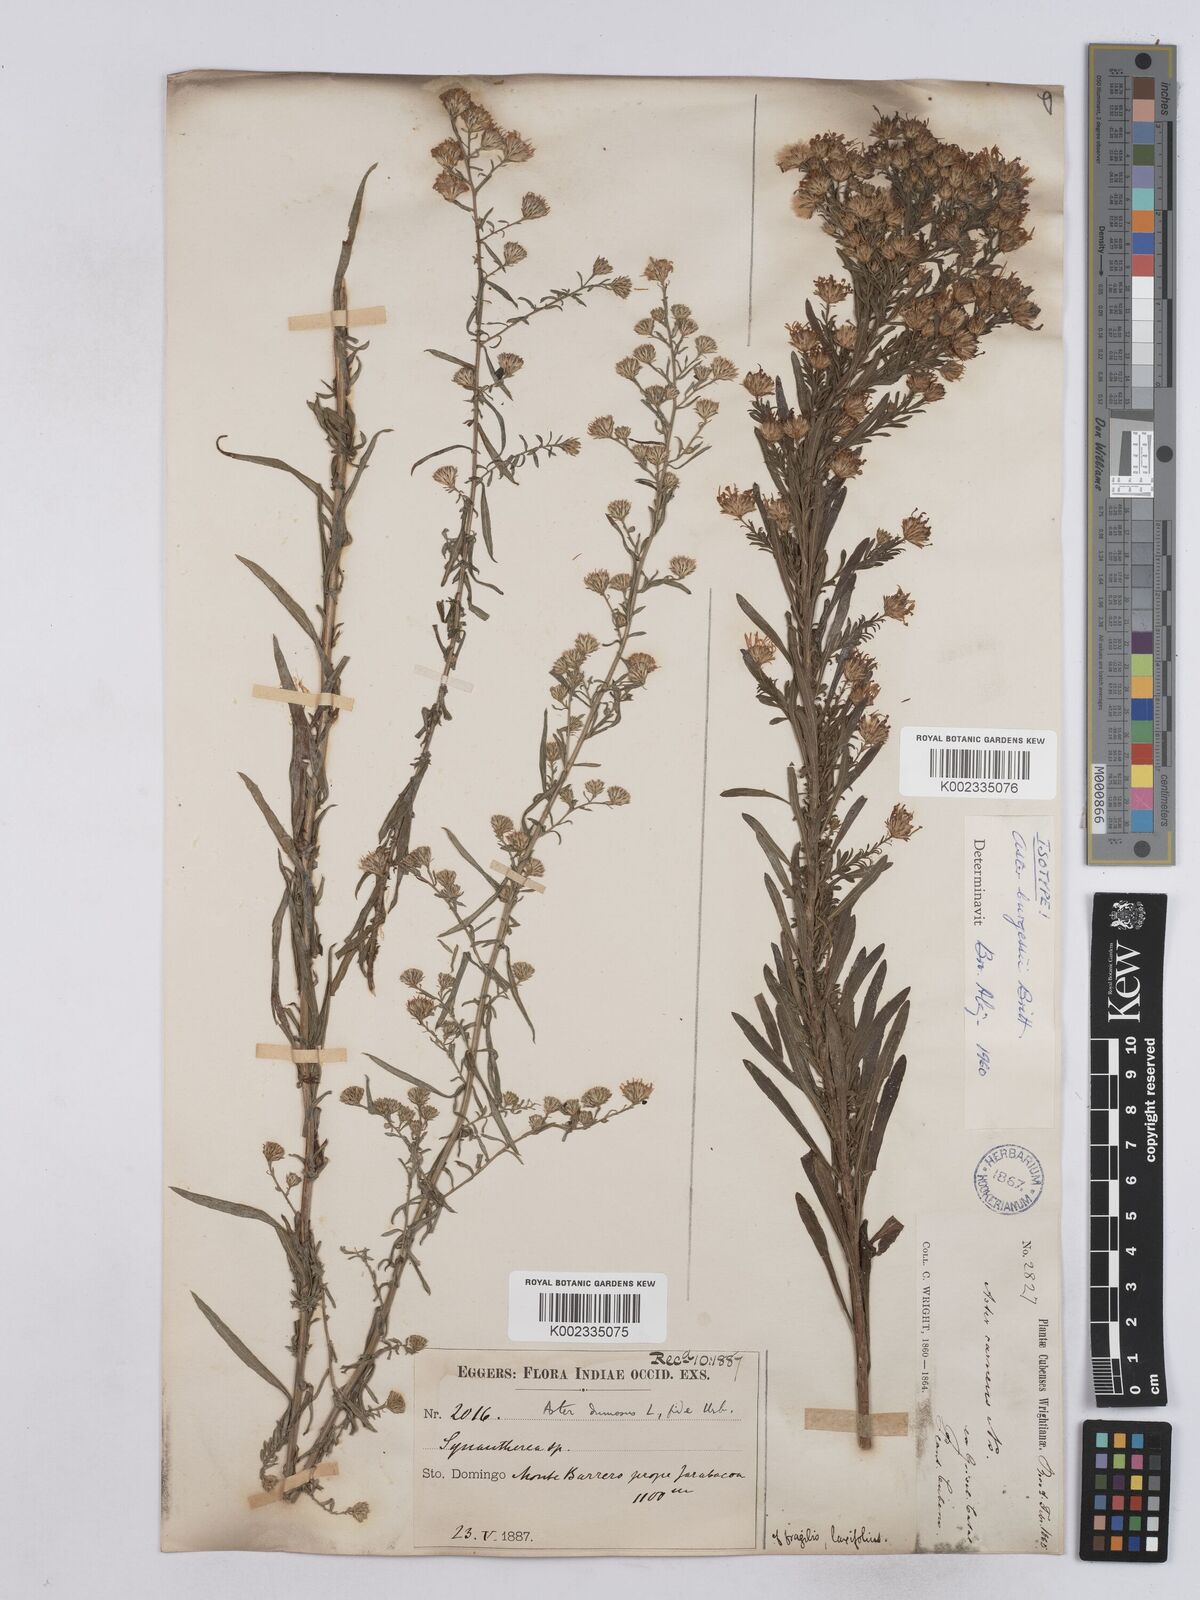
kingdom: Plantae
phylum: Tracheophyta
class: Magnoliopsida
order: Asterales
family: Asteraceae
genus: Symphyotrichum
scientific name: Symphyotrichum dumosum
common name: Bushy aster
